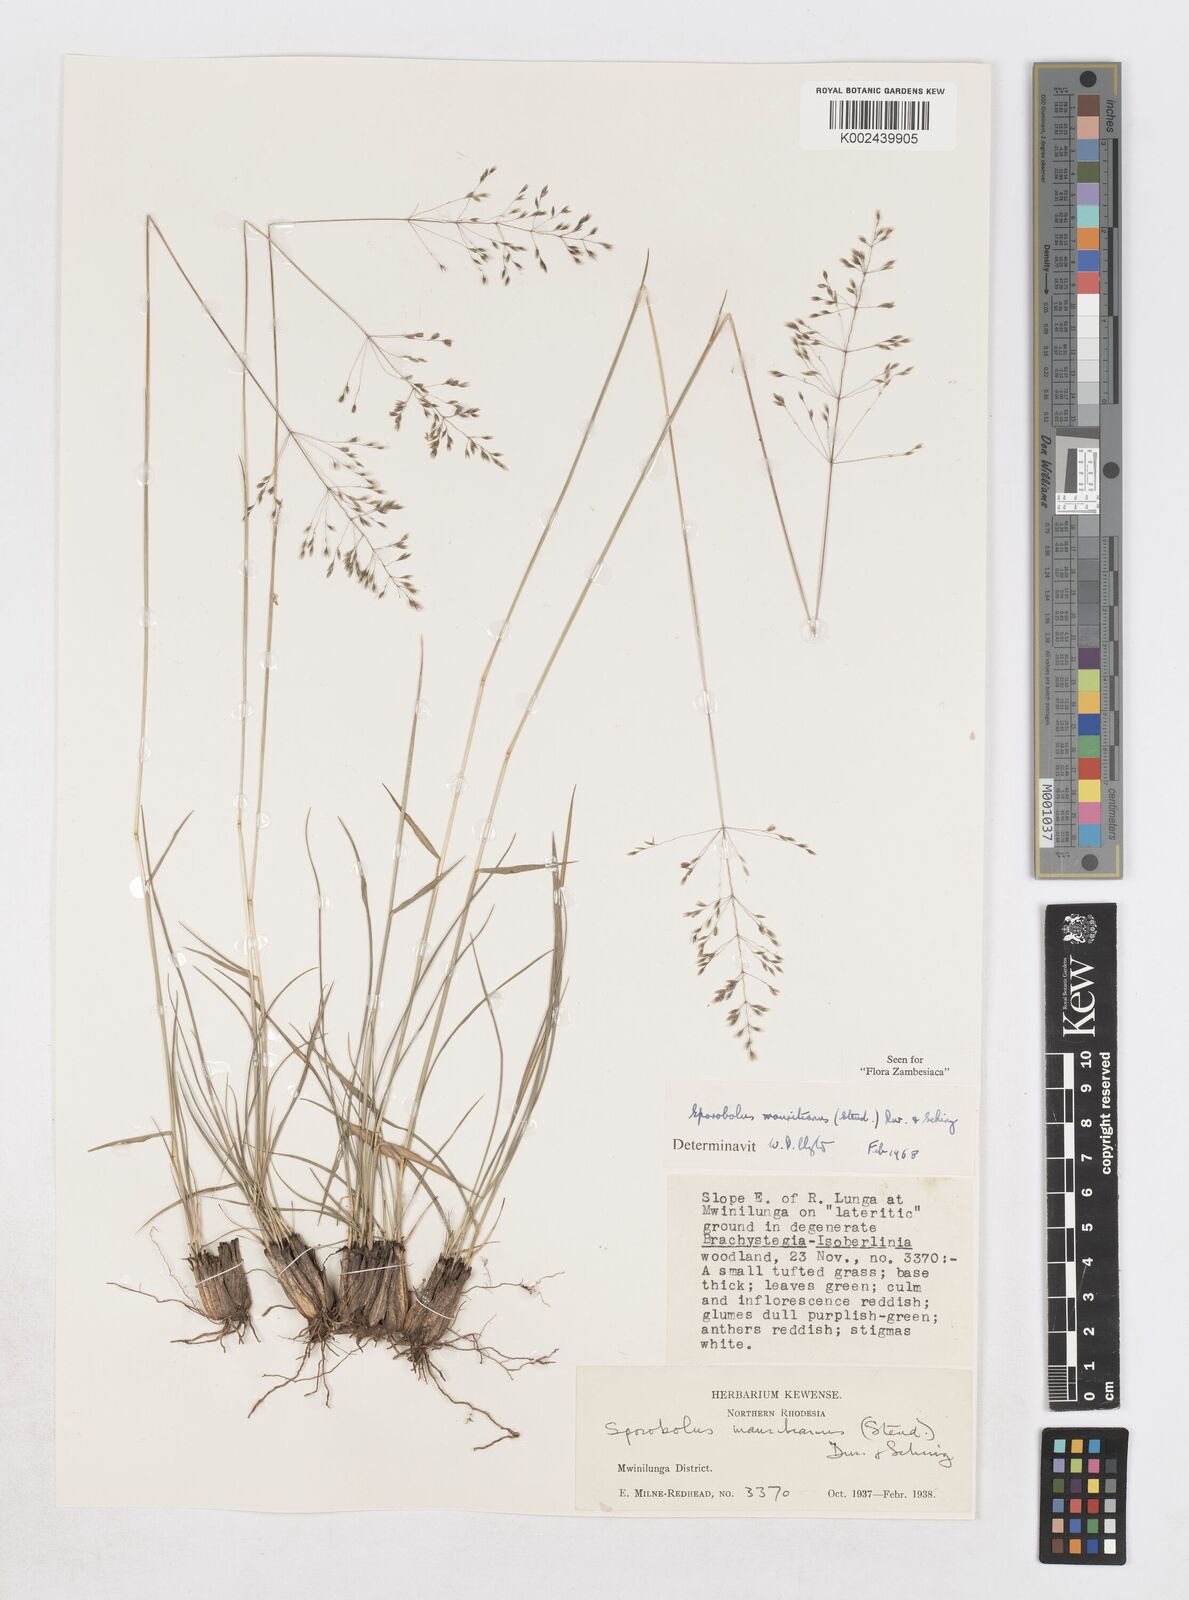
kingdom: Plantae
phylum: Tracheophyta
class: Liliopsida
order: Poales
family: Poaceae
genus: Sporobolus
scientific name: Sporobolus subulatus
